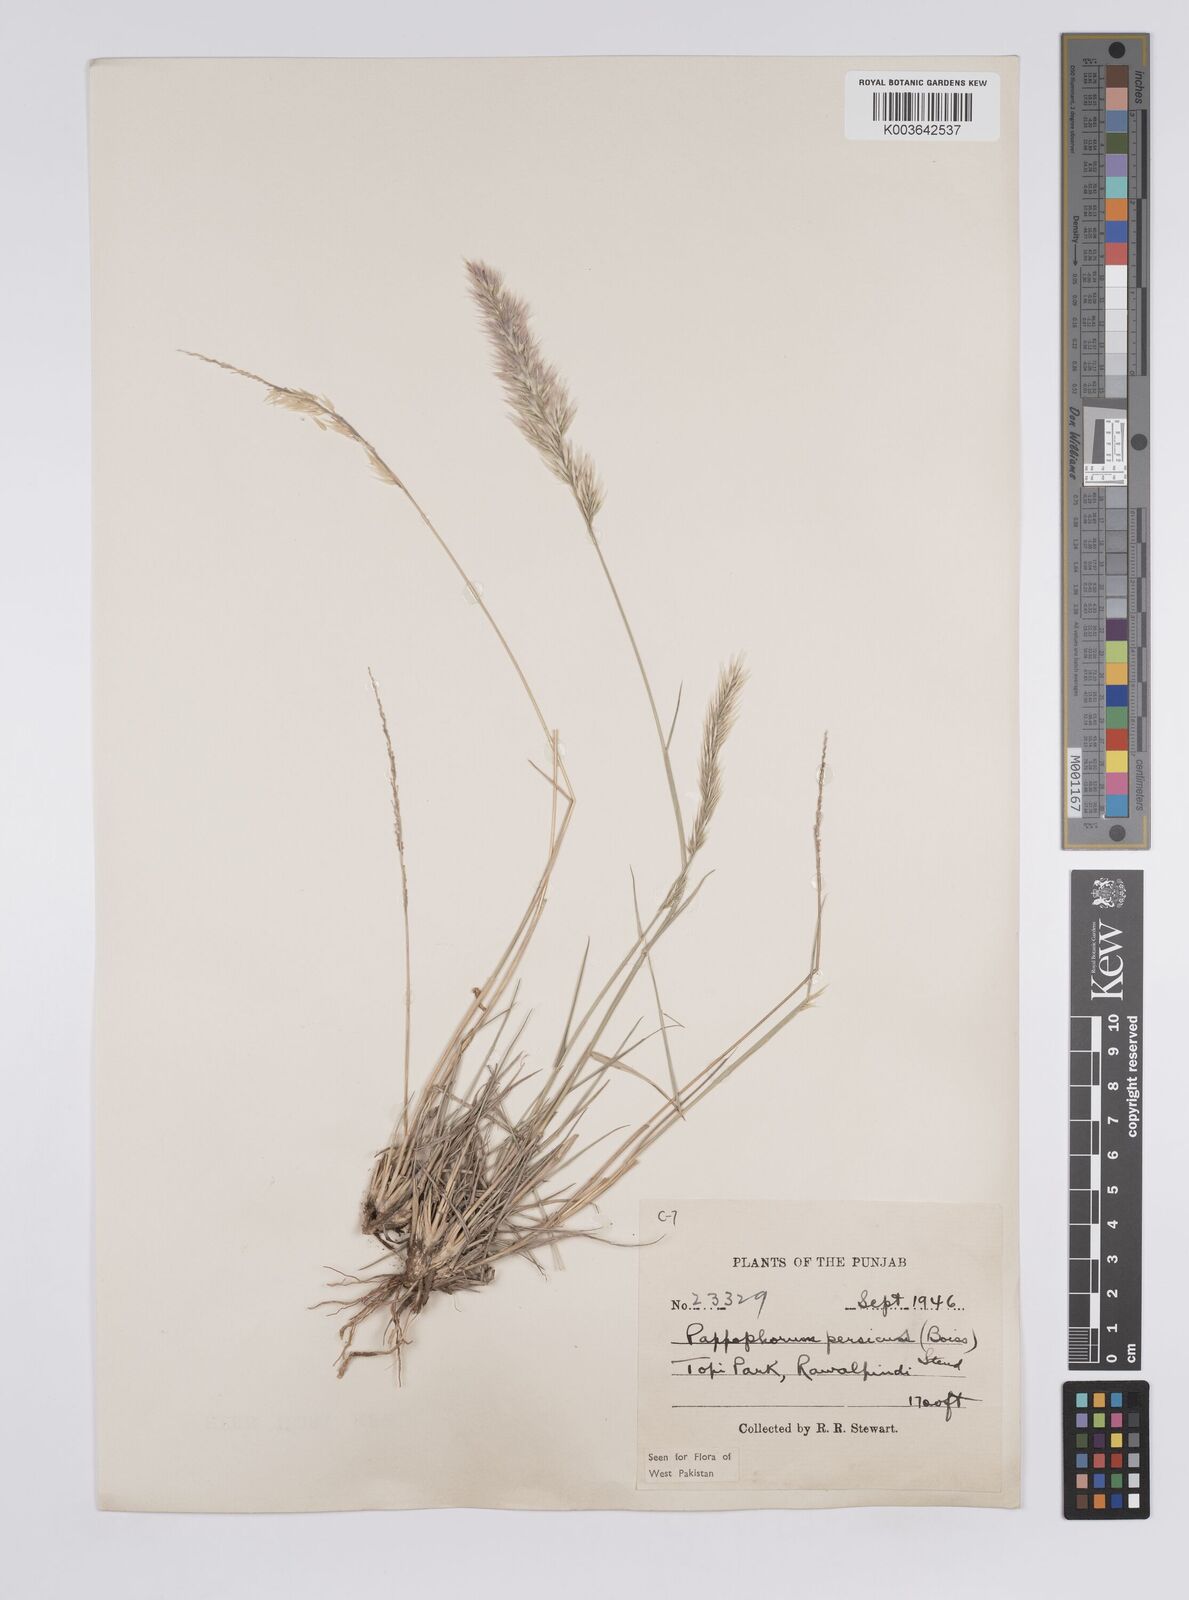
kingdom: Plantae
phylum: Tracheophyta
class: Liliopsida
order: Poales
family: Poaceae
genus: Enneapogon
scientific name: Enneapogon persicus
